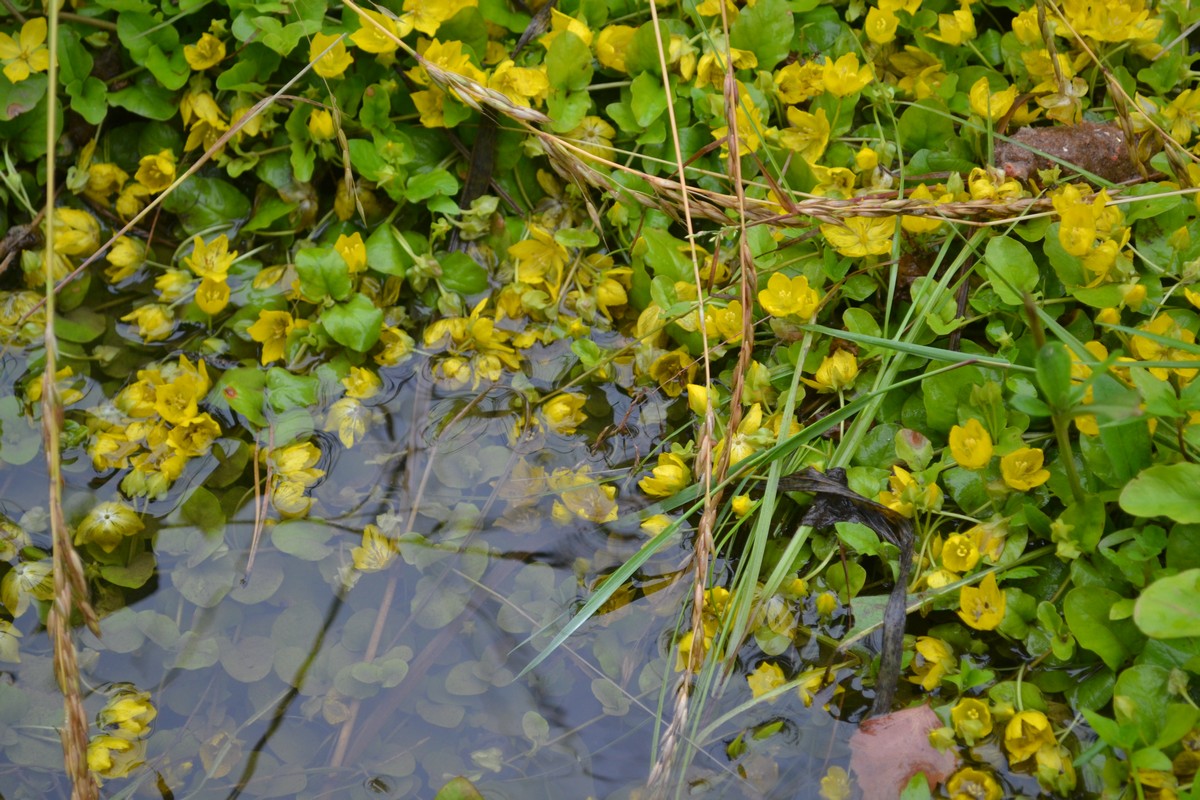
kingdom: Plantae
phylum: Tracheophyta
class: Magnoliopsida
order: Ericales
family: Primulaceae
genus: Lysimachia
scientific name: Lysimachia nummularia
